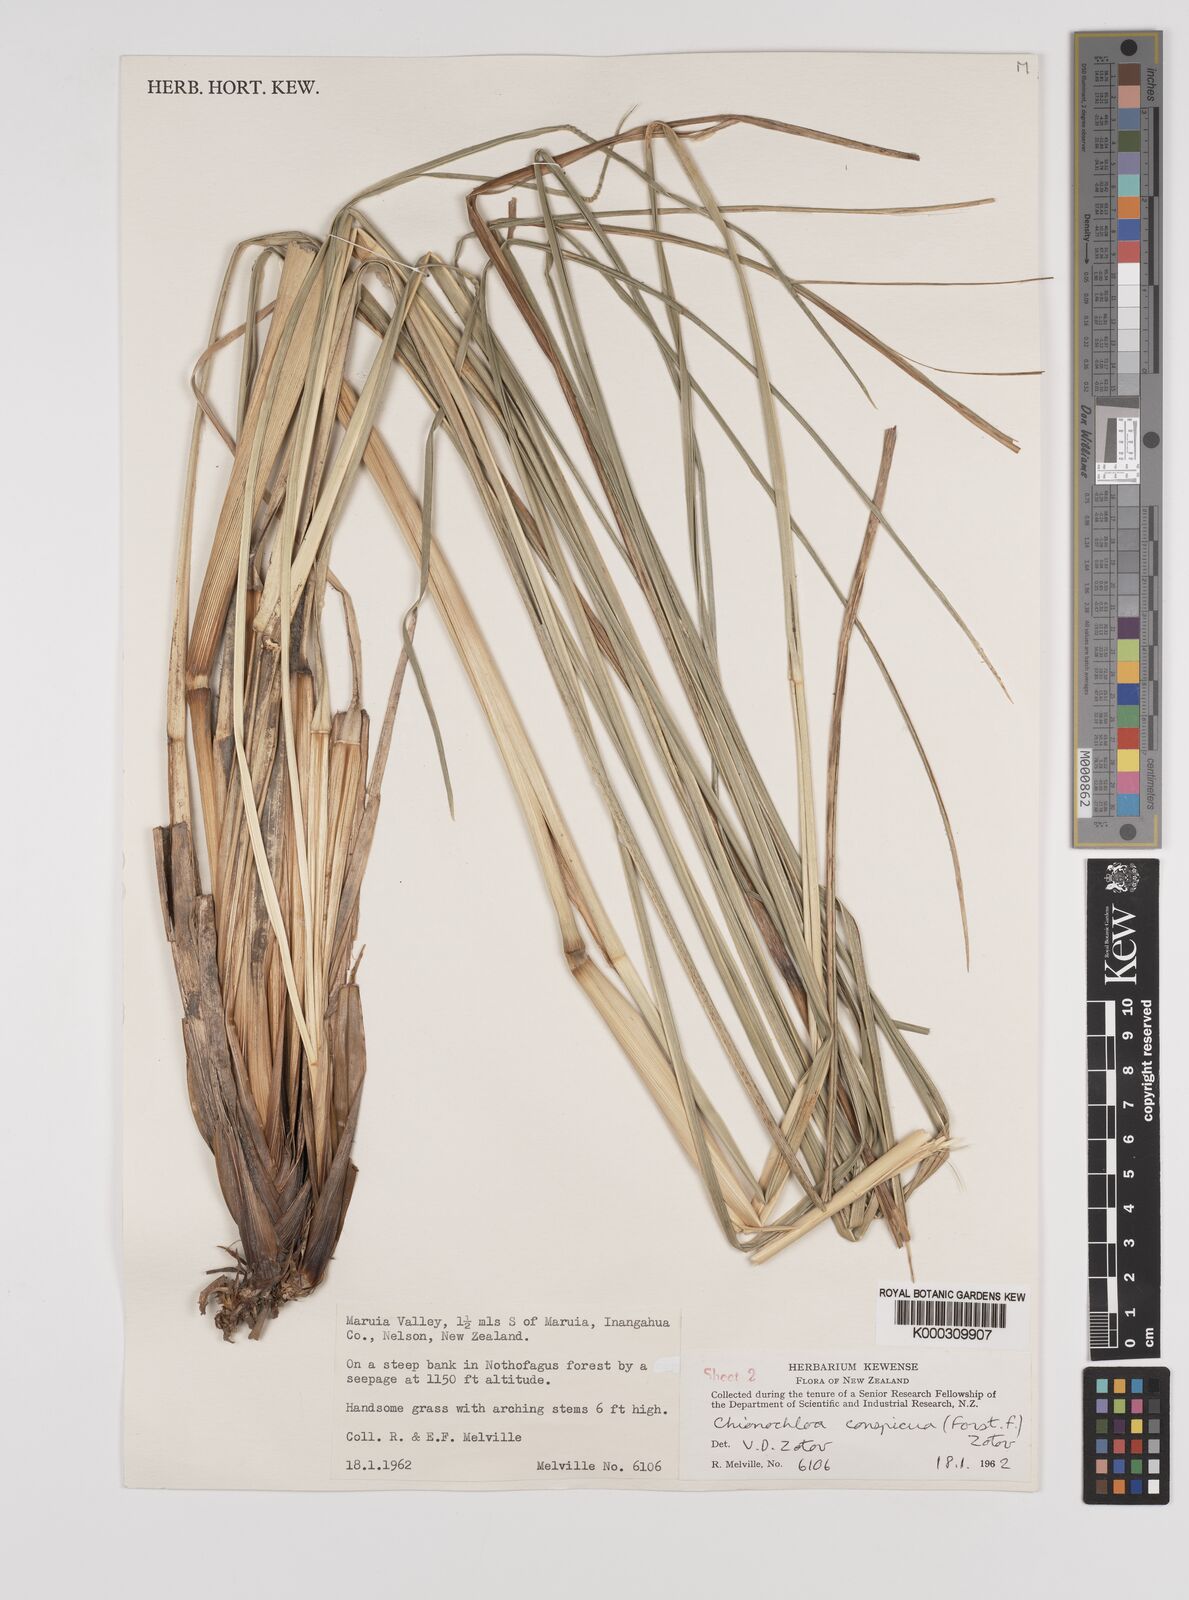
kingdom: Plantae
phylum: Tracheophyta
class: Liliopsida
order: Poales
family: Poaceae
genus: Chionochloa
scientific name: Chionochloa conspicua
